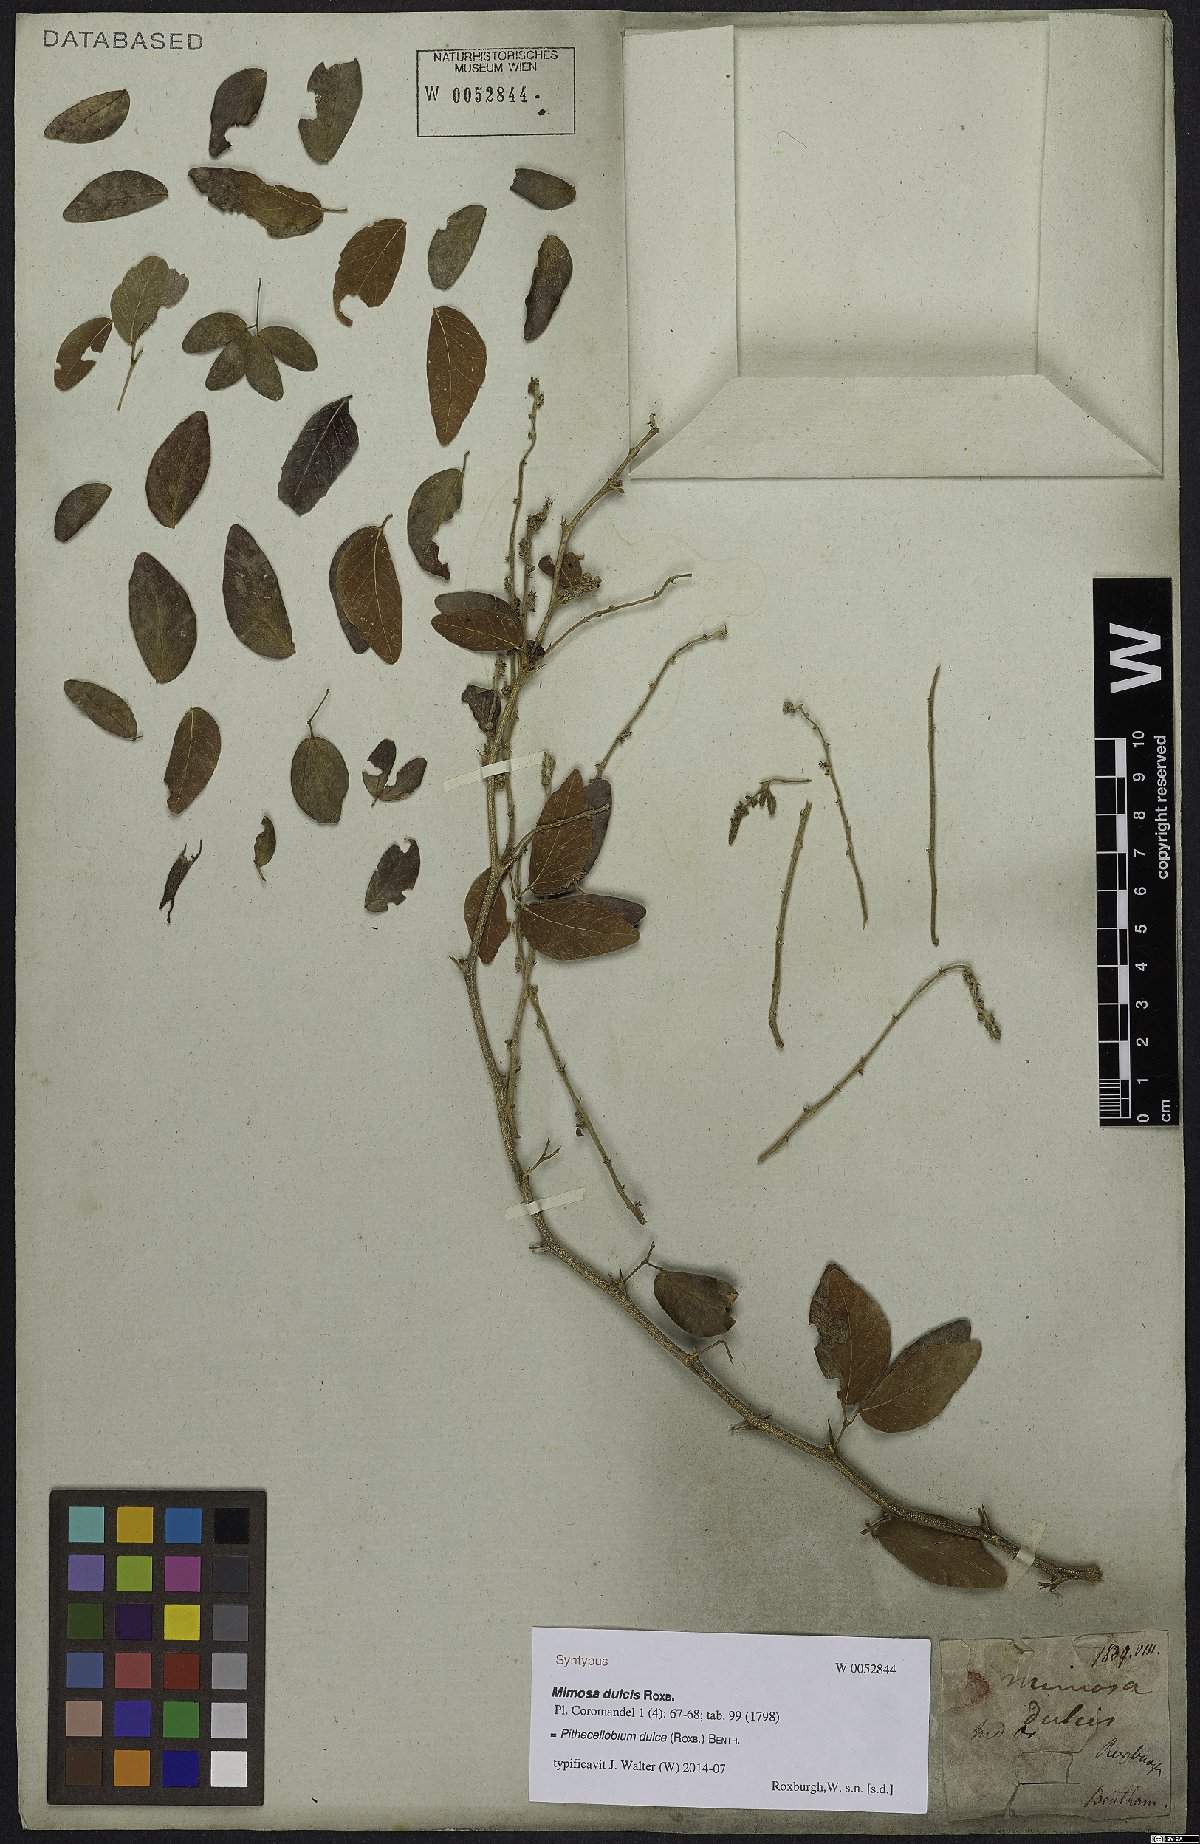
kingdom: Plantae
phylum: Tracheophyta
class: Magnoliopsida
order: Fabales
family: Fabaceae
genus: Pithecellobium
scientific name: Pithecellobium dulce
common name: Monkeypod
